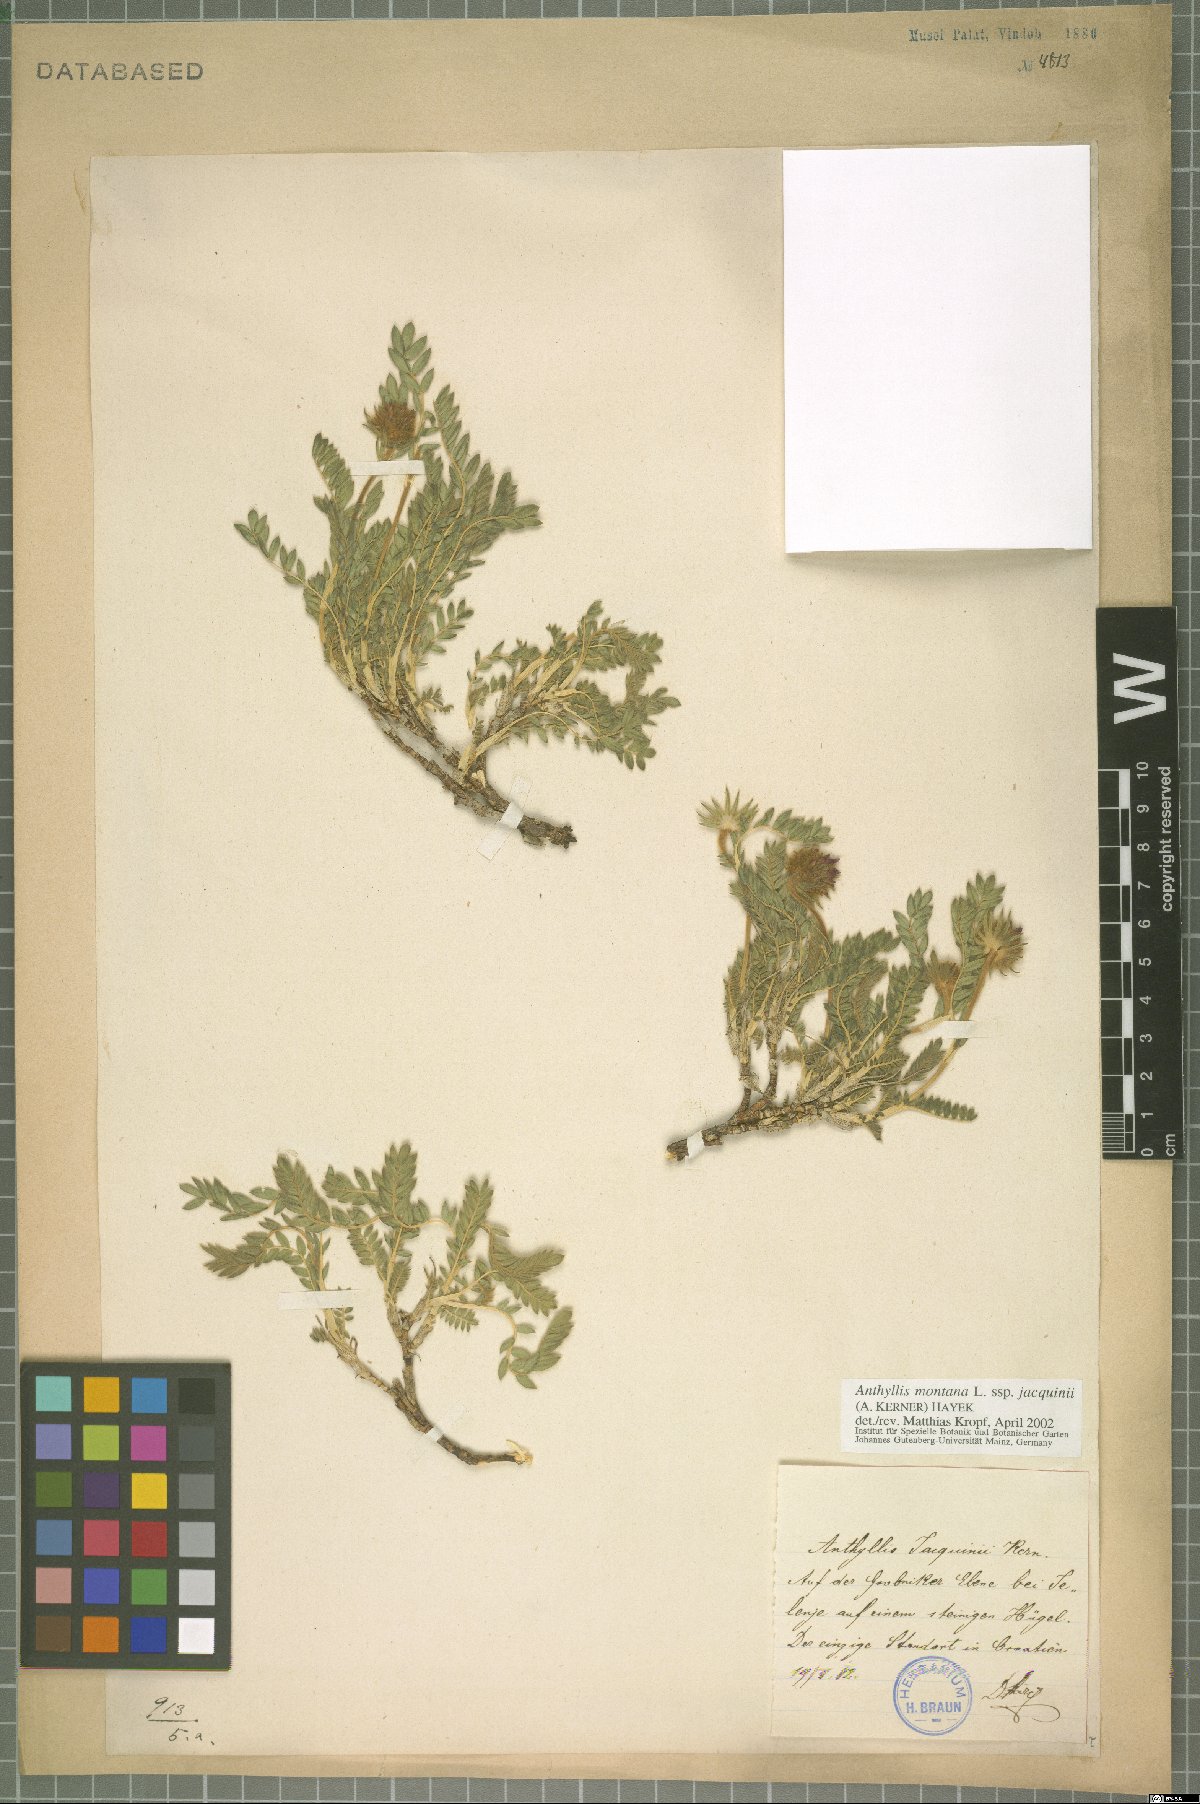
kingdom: Plantae
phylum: Tracheophyta
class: Magnoliopsida
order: Fabales
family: Fabaceae
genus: Anthyllis
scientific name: Anthyllis montana
